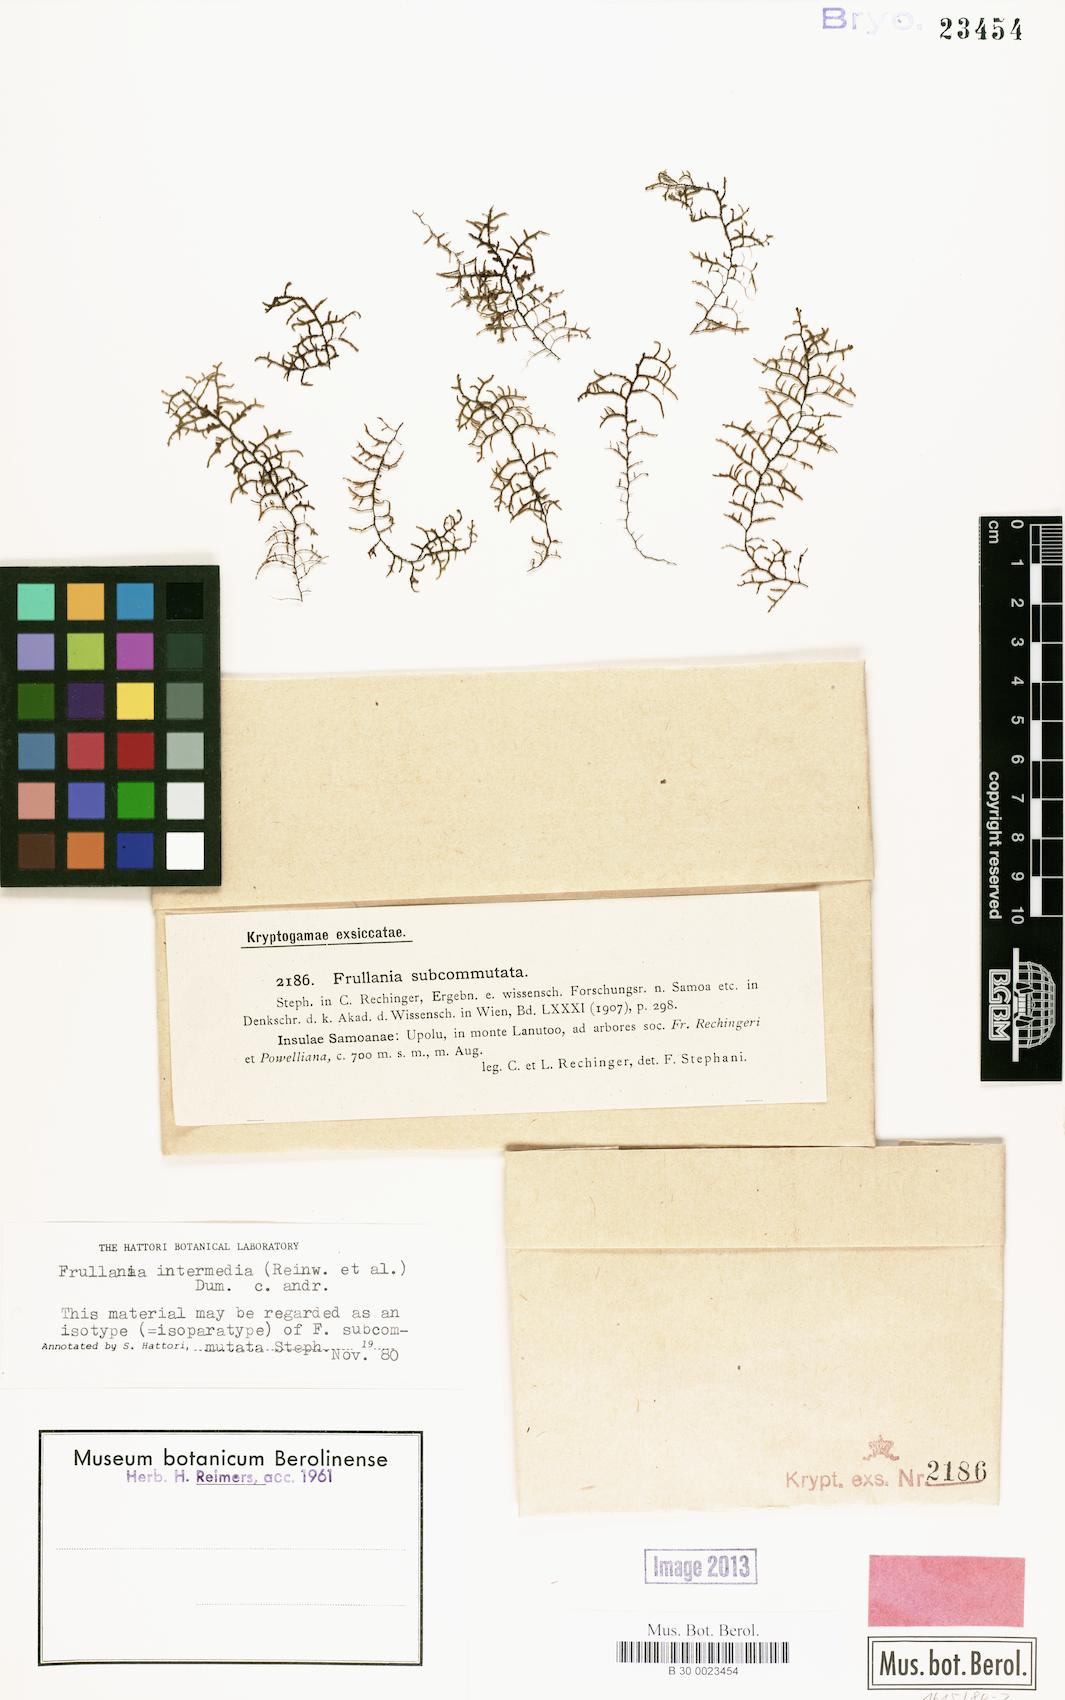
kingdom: Plantae
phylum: Marchantiophyta
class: Jungermanniopsida
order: Porellales
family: Frullaniaceae
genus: Frullania
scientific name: Frullania intermedia
